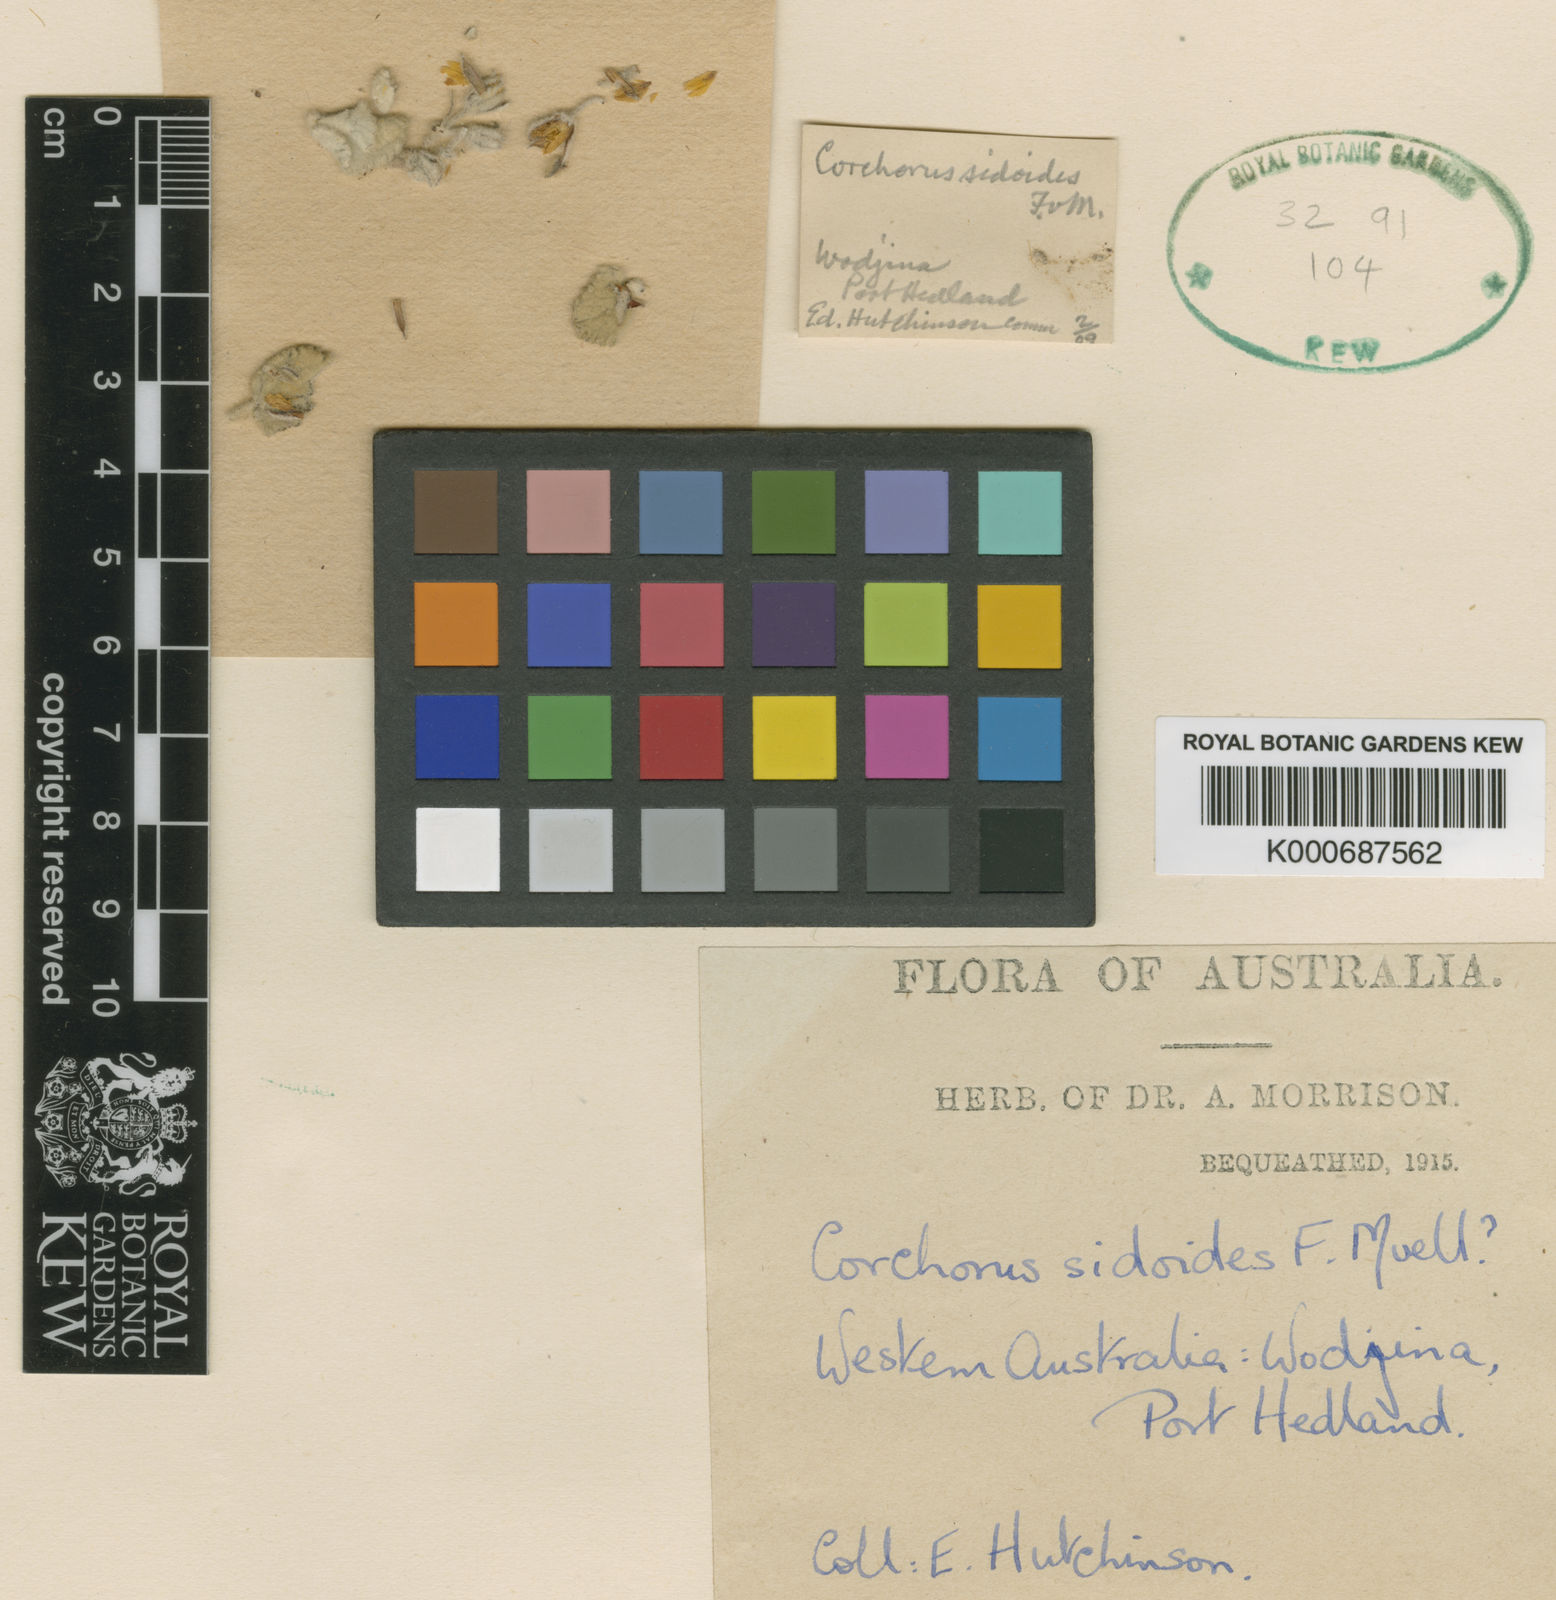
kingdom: Plantae
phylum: Tracheophyta
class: Magnoliopsida
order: Malvales
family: Malvaceae
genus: Corchorus
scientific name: Corchorus sidoides
